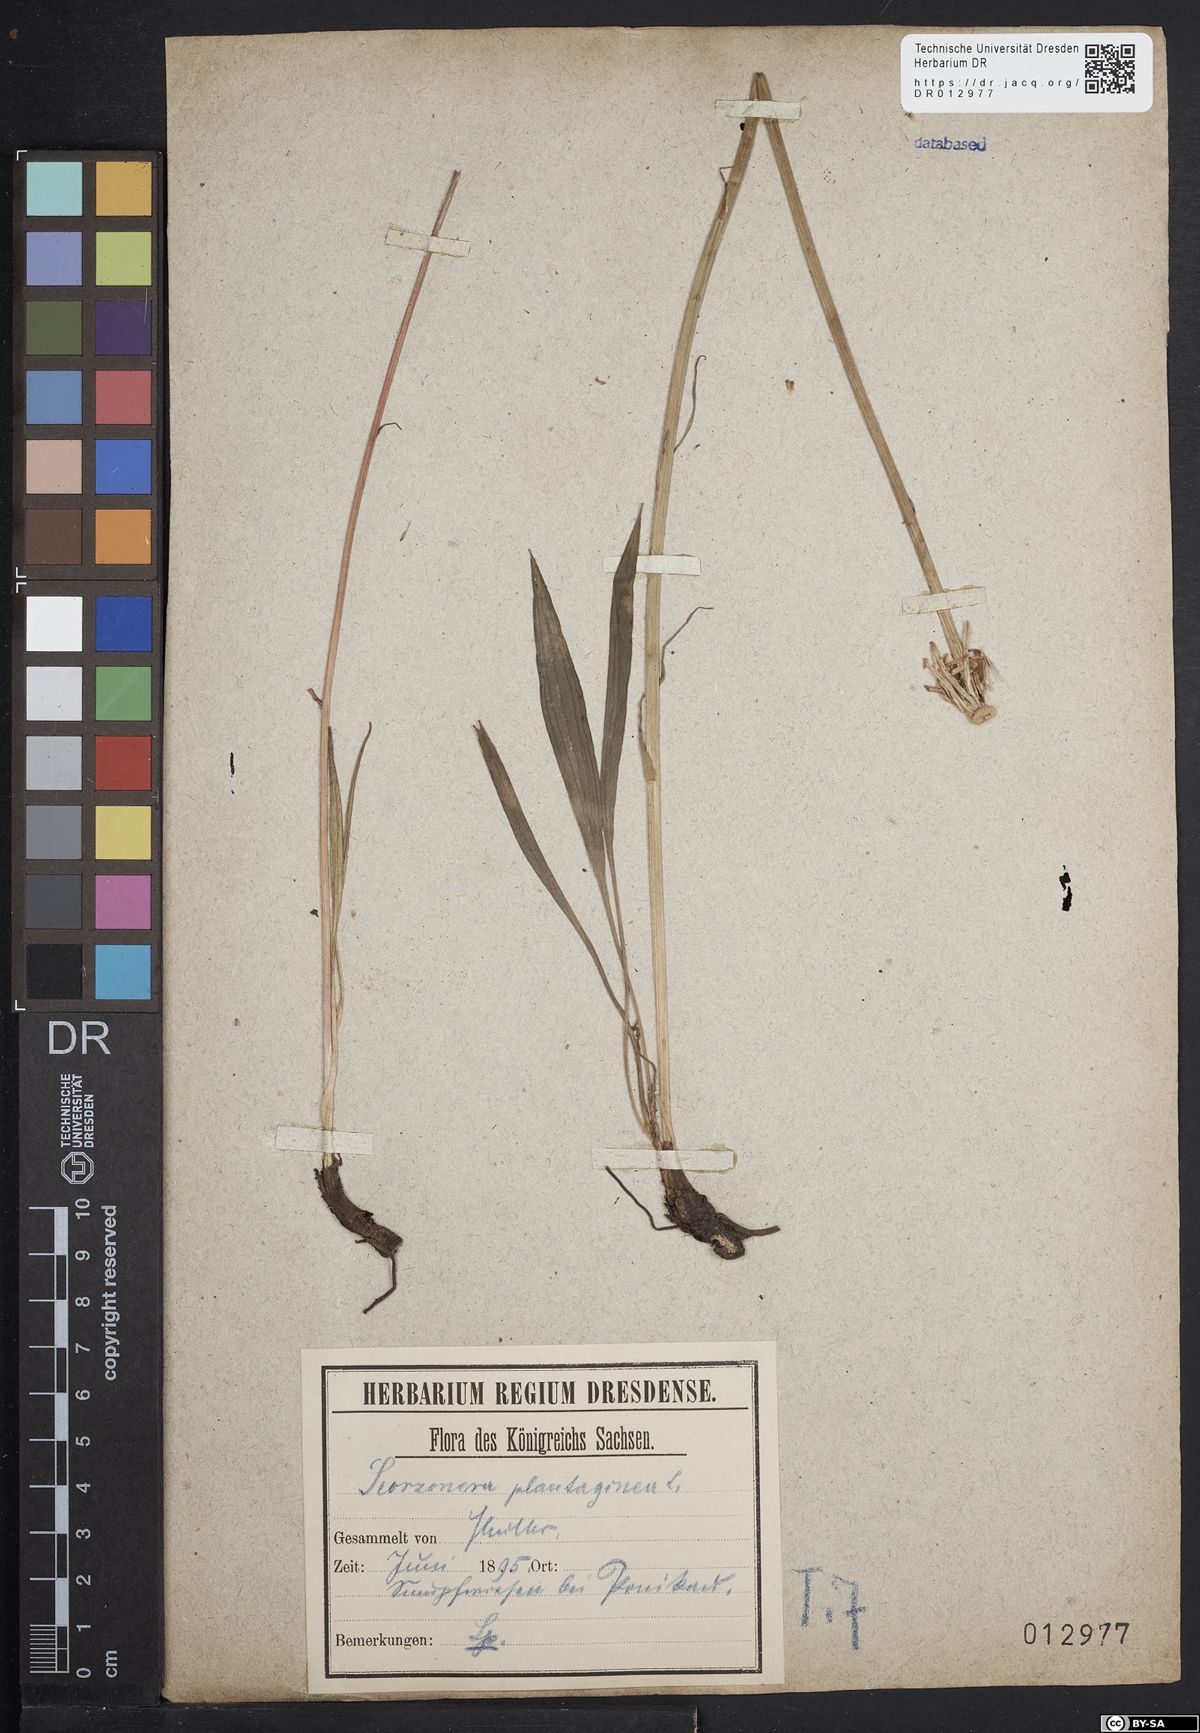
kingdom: Plantae
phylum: Tracheophyta
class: Magnoliopsida
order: Asterales
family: Asteraceae
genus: Scorzonera
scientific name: Scorzonera humilis
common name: Viper's-grass
